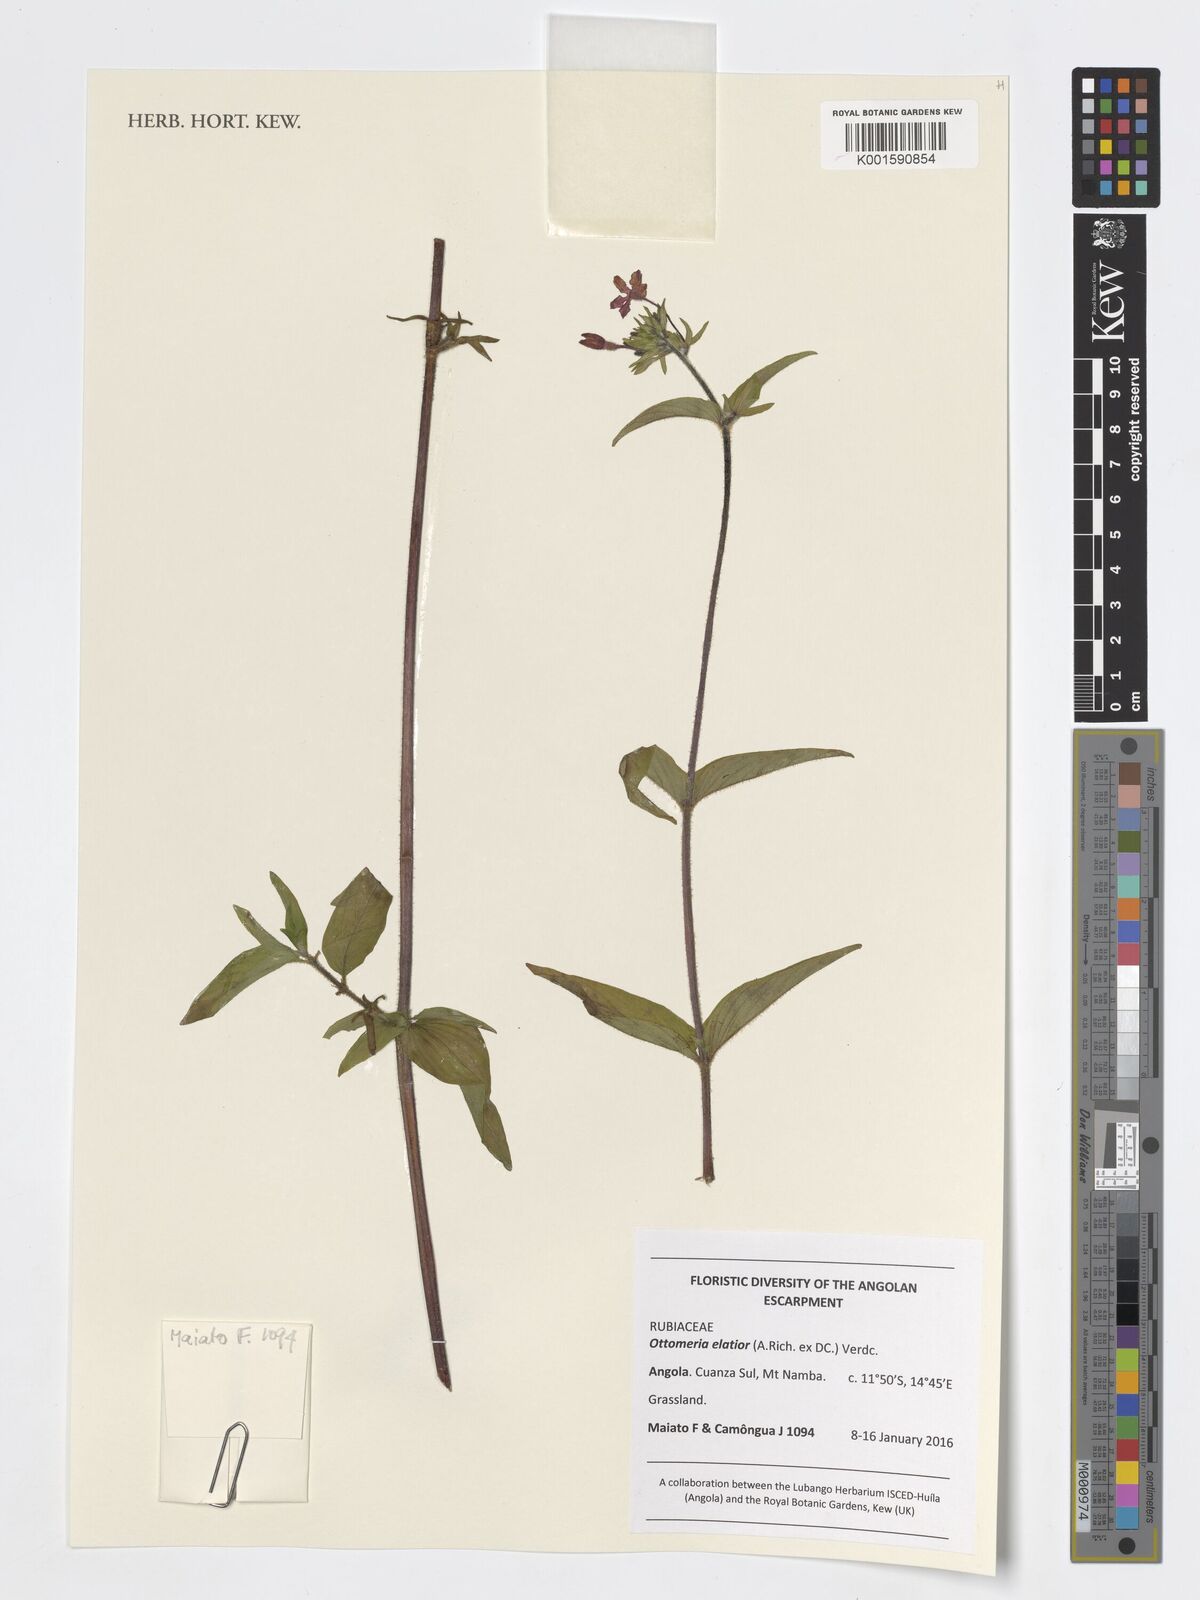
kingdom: Plantae
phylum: Tracheophyta
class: Magnoliopsida
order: Gentianales
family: Rubiaceae
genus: Otomeria
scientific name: Otomeria elatior
